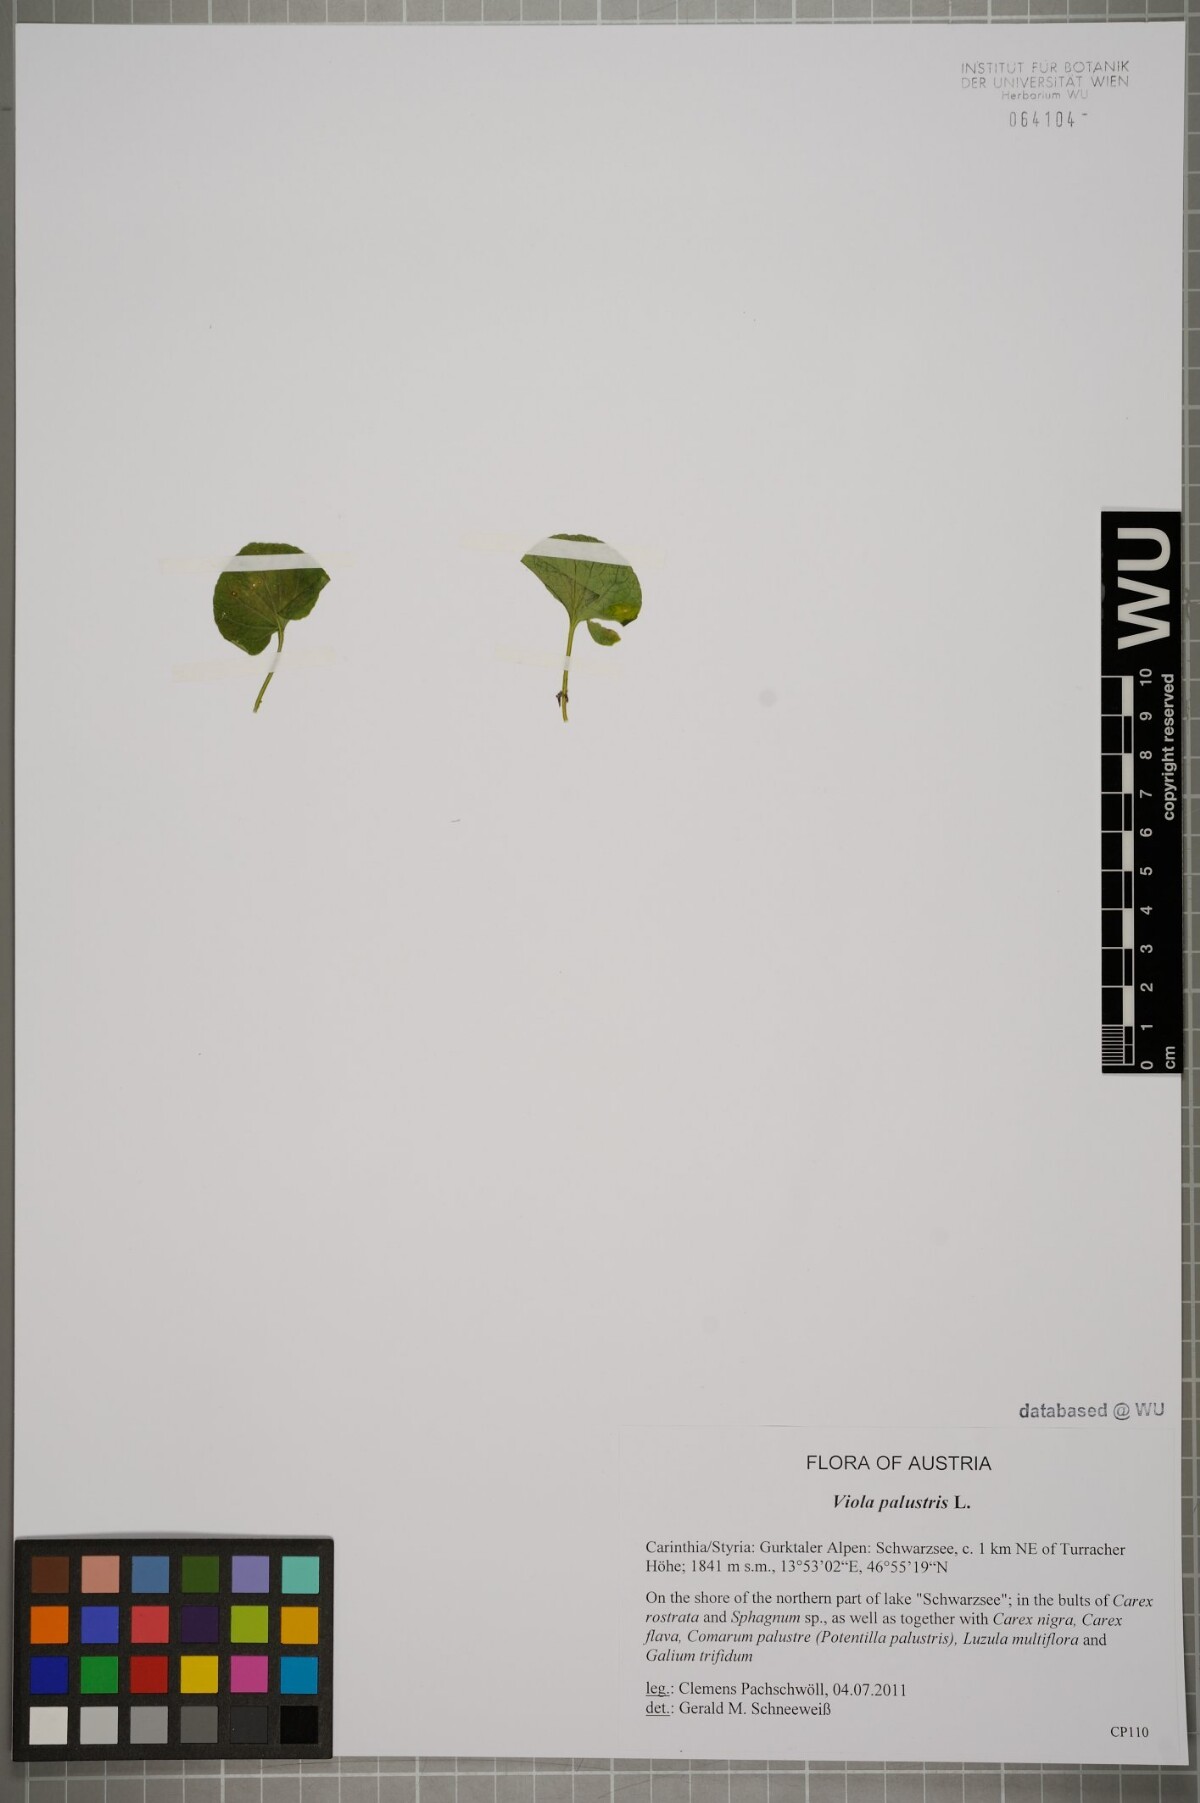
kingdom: Plantae
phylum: Tracheophyta
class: Magnoliopsida
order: Malpighiales
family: Violaceae
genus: Viola
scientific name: Viola palustris
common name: Marsh violet
